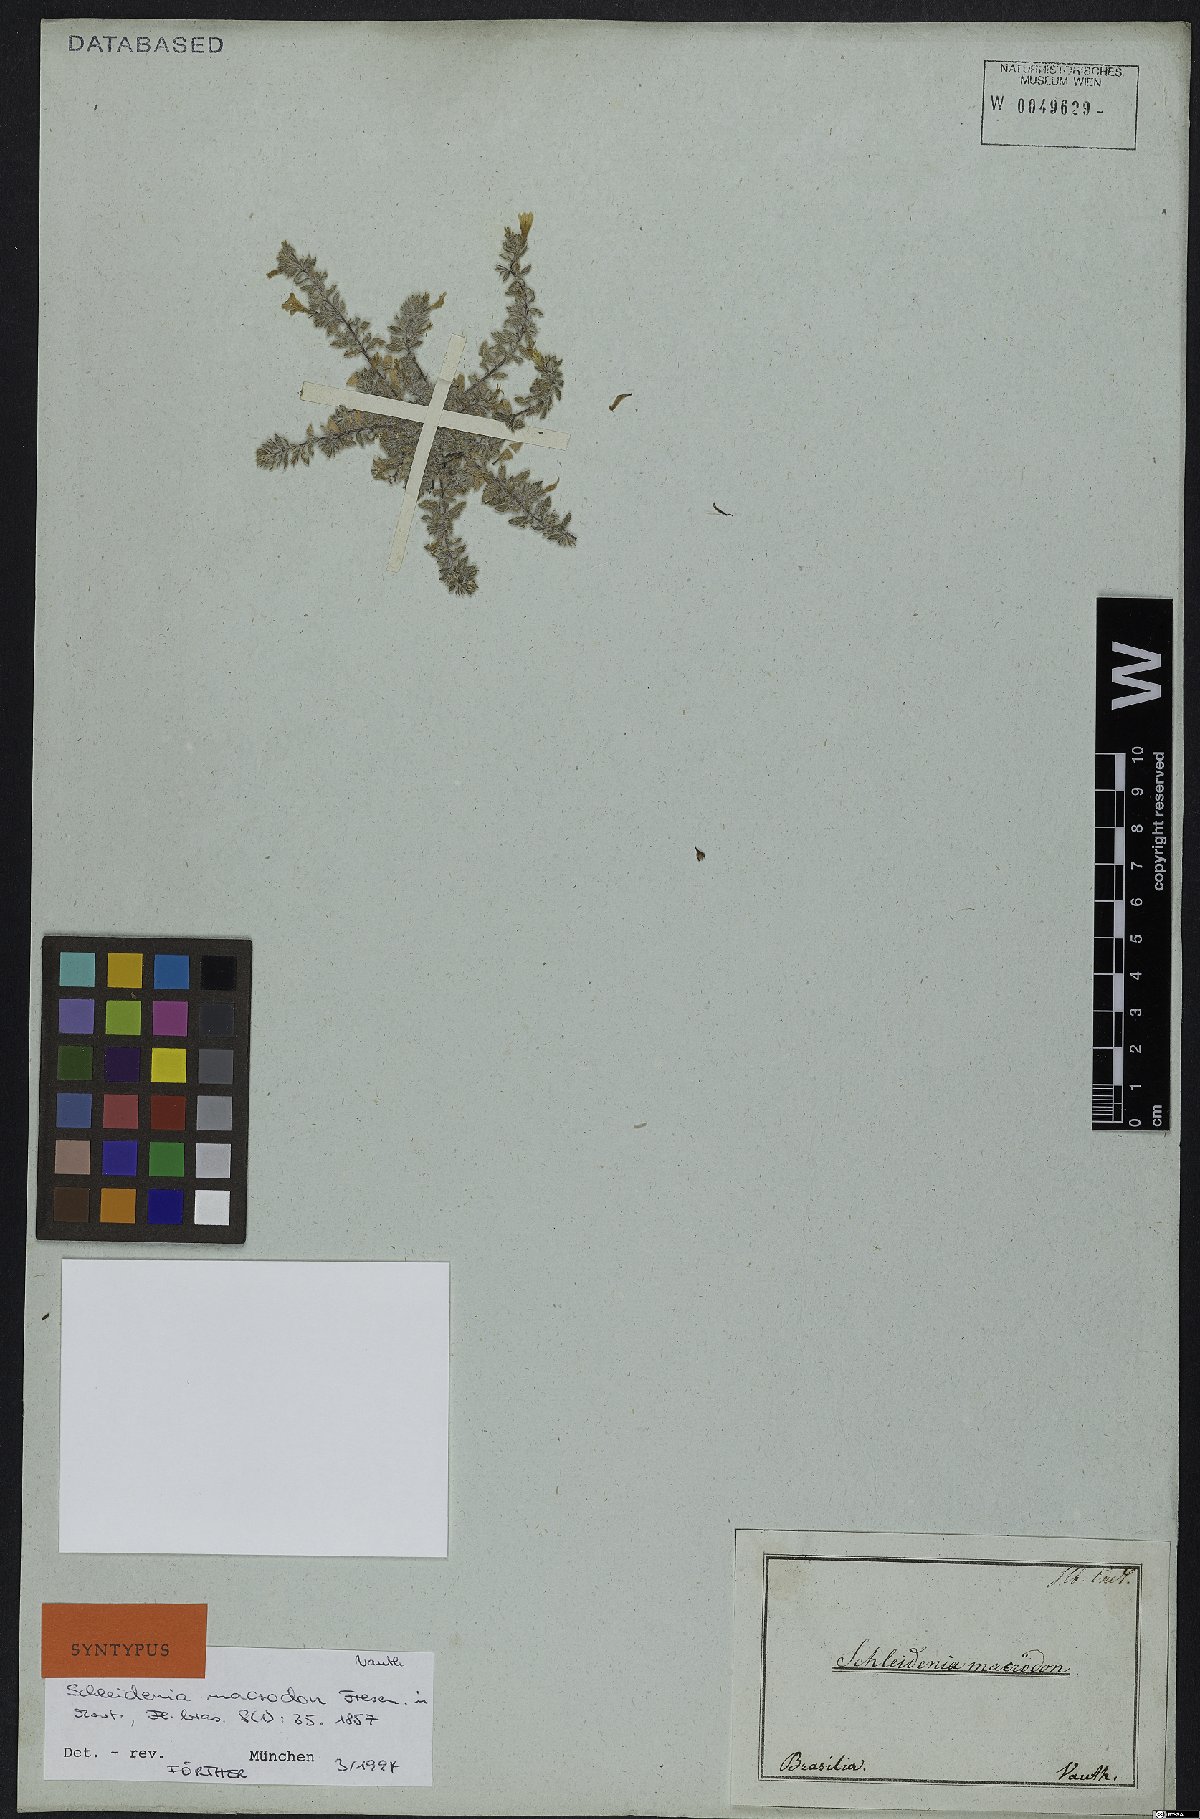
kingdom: Plantae
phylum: Tracheophyta
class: Magnoliopsida
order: Boraginales
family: Heliotropiaceae
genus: Heliotropium
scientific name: Heliotropium macrodon
